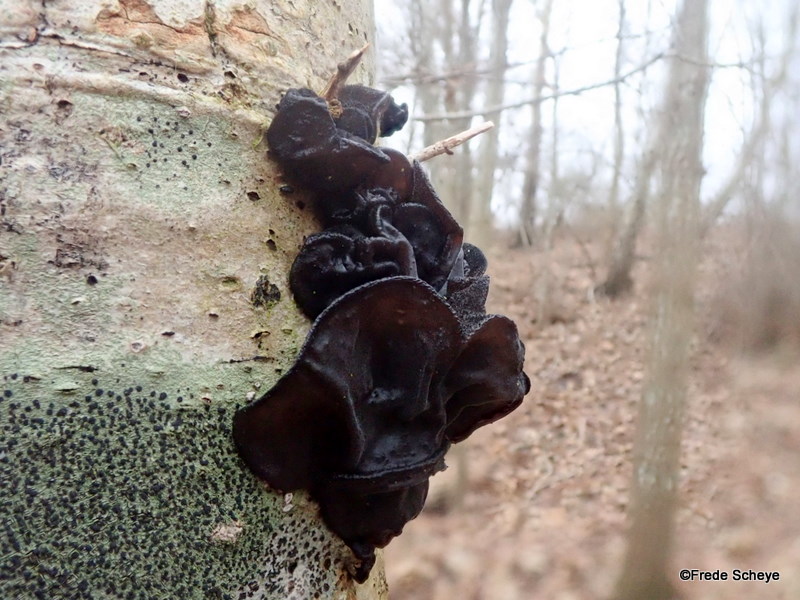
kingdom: Fungi
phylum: Basidiomycota
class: Agaricomycetes
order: Auriculariales
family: Auriculariaceae
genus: Exidia
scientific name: Exidia glandulosa
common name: ege-bævretop
